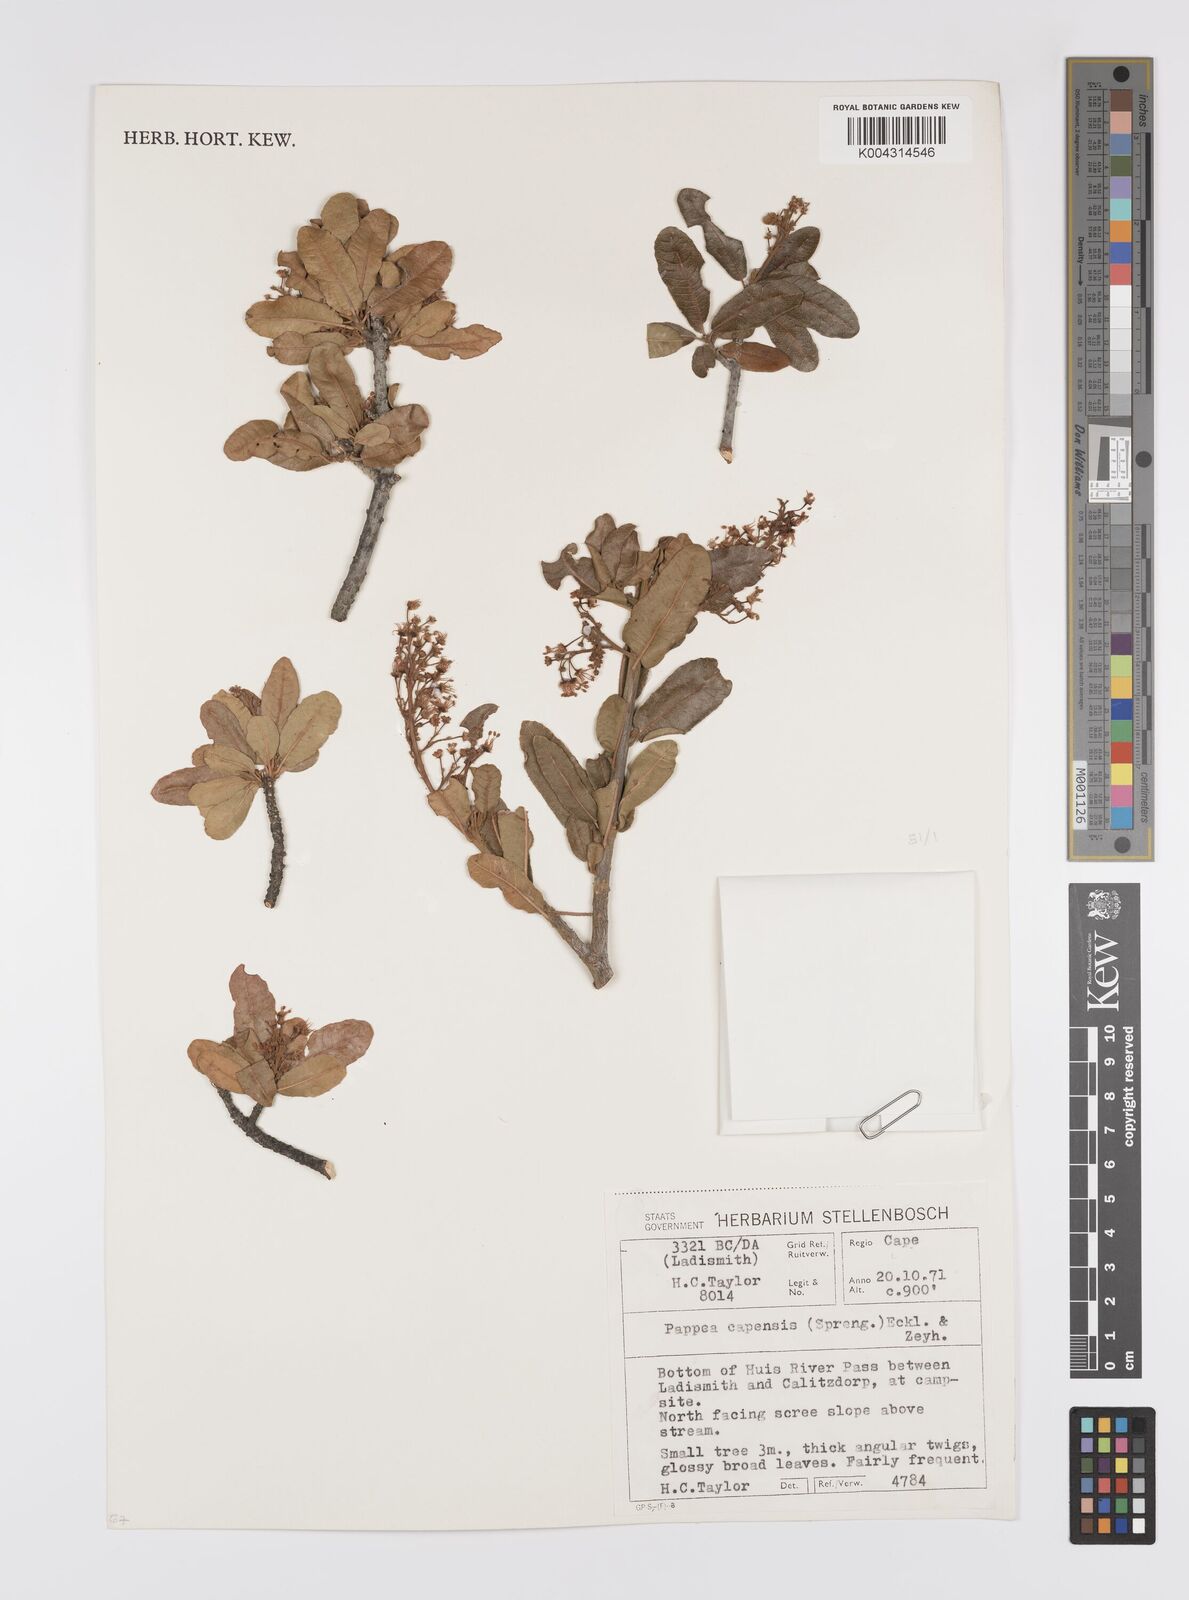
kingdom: Plantae
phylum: Tracheophyta
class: Magnoliopsida
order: Sapindales
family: Sapindaceae
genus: Pappea
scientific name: Pappea capensis
